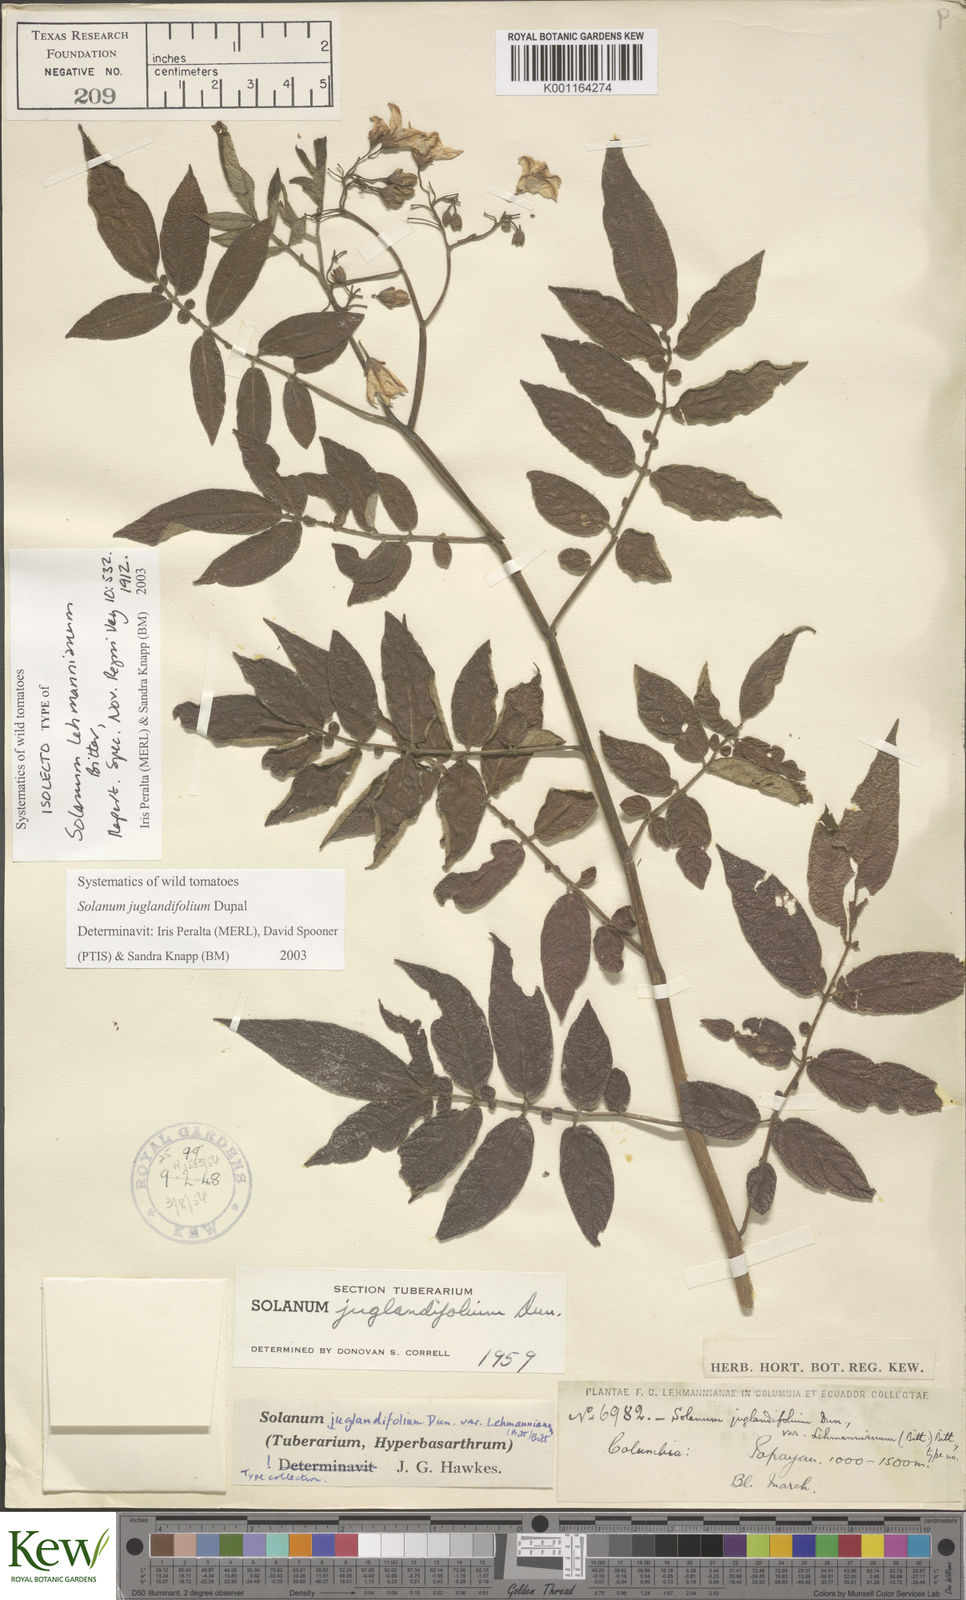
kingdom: Plantae
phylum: Tracheophyta
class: Magnoliopsida
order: Solanales
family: Solanaceae
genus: Solanum
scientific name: Solanum juglandifolium
